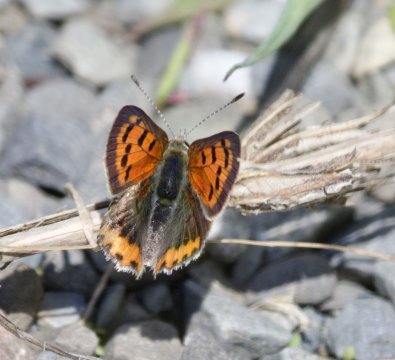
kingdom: Animalia
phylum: Arthropoda
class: Insecta
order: Lepidoptera
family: Lycaenidae
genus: Lycaena
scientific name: Lycaena phlaeas
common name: American Copper
